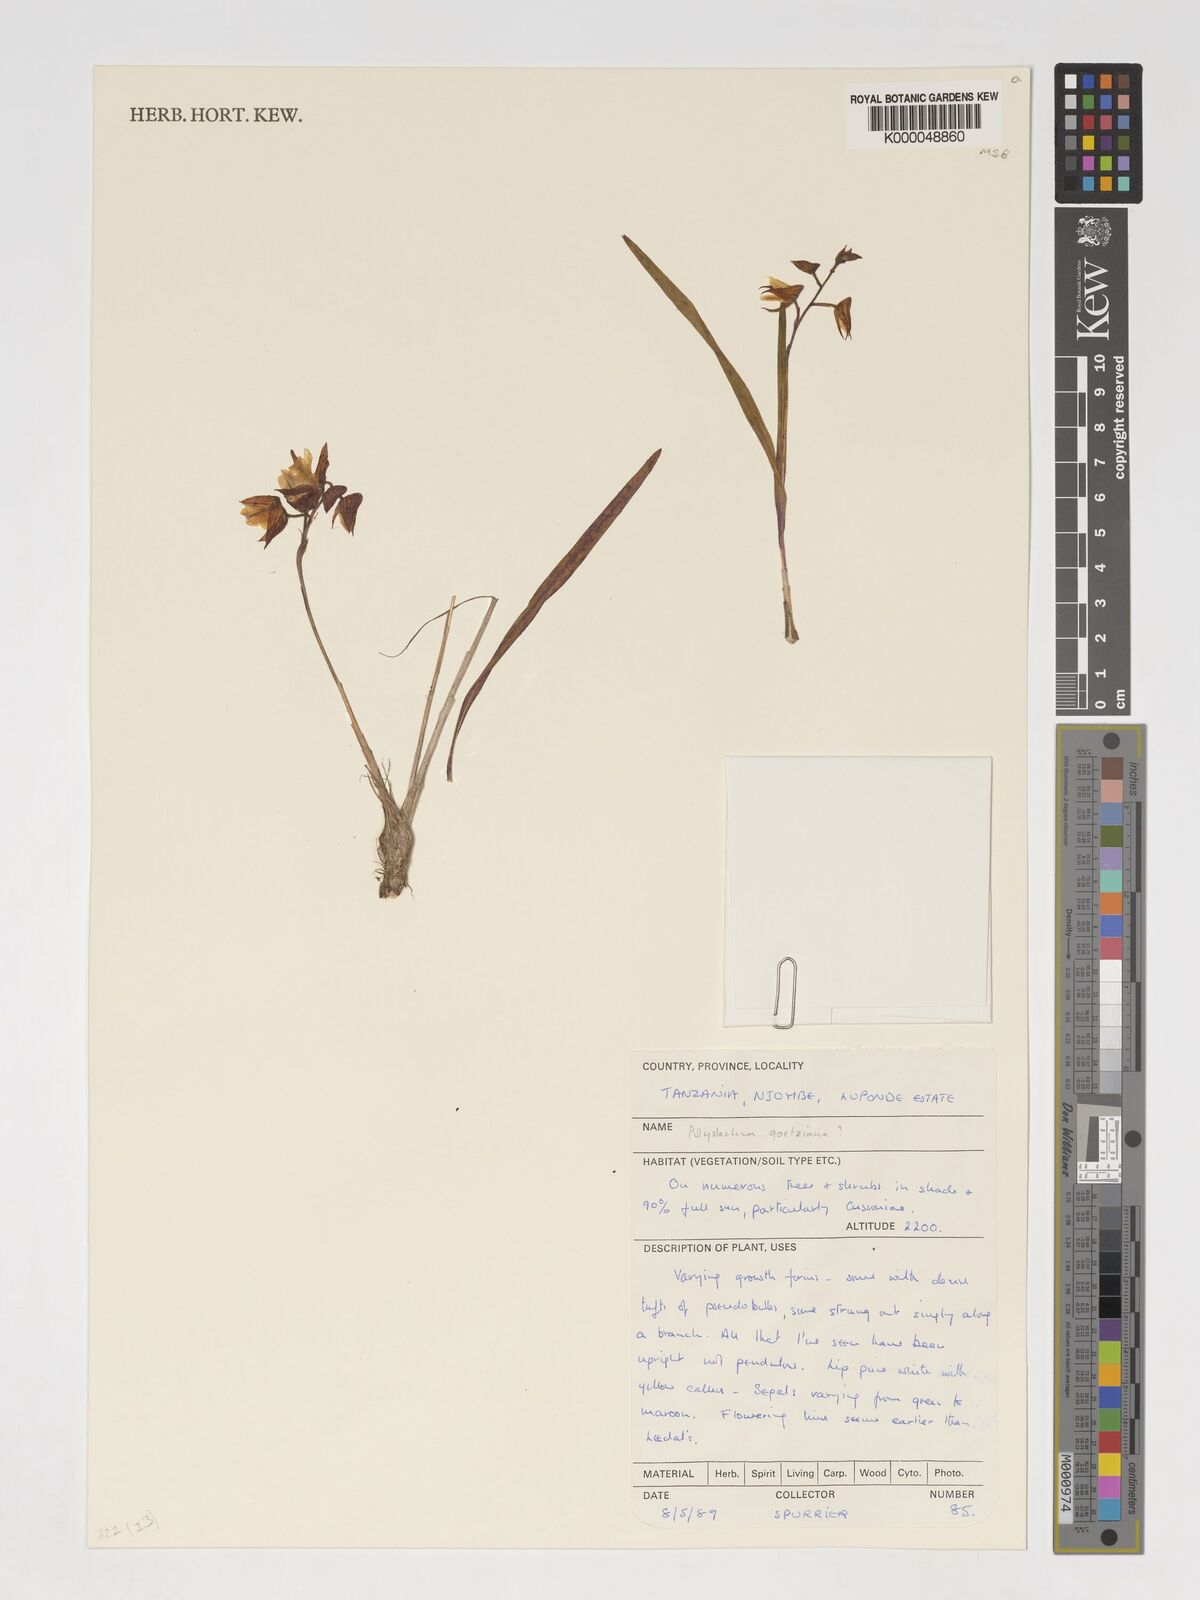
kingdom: Plantae
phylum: Tracheophyta
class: Liliopsida
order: Asparagales
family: Orchidaceae
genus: Polystachya
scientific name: Polystachya goetzeana
